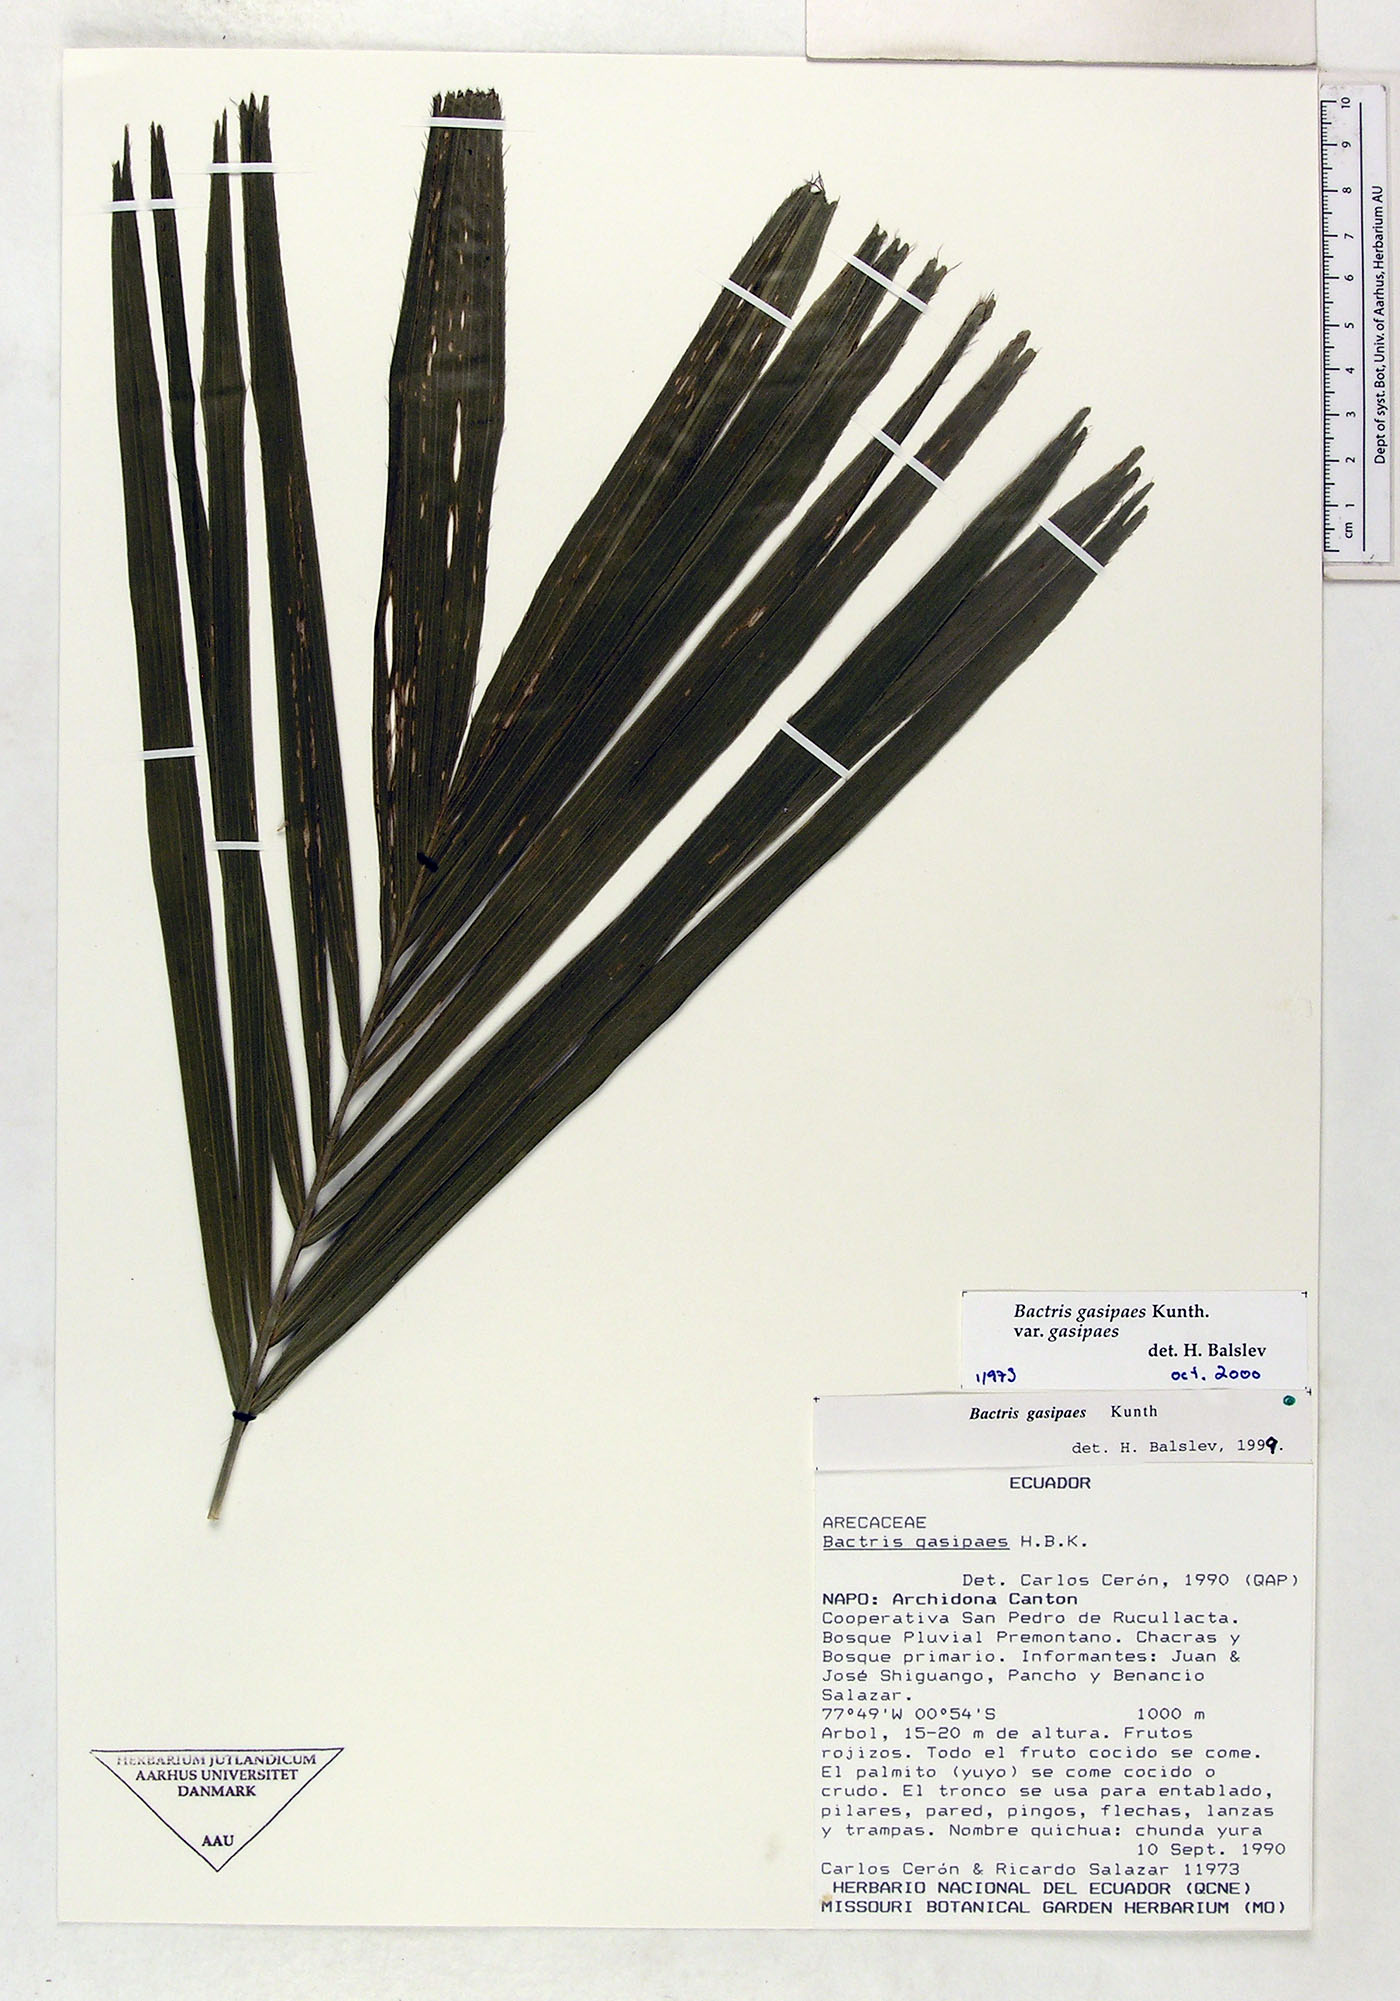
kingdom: Plantae
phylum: Tracheophyta
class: Liliopsida
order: Arecales
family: Arecaceae
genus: Bactris
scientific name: Bactris gasipaes
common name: Peach palm
